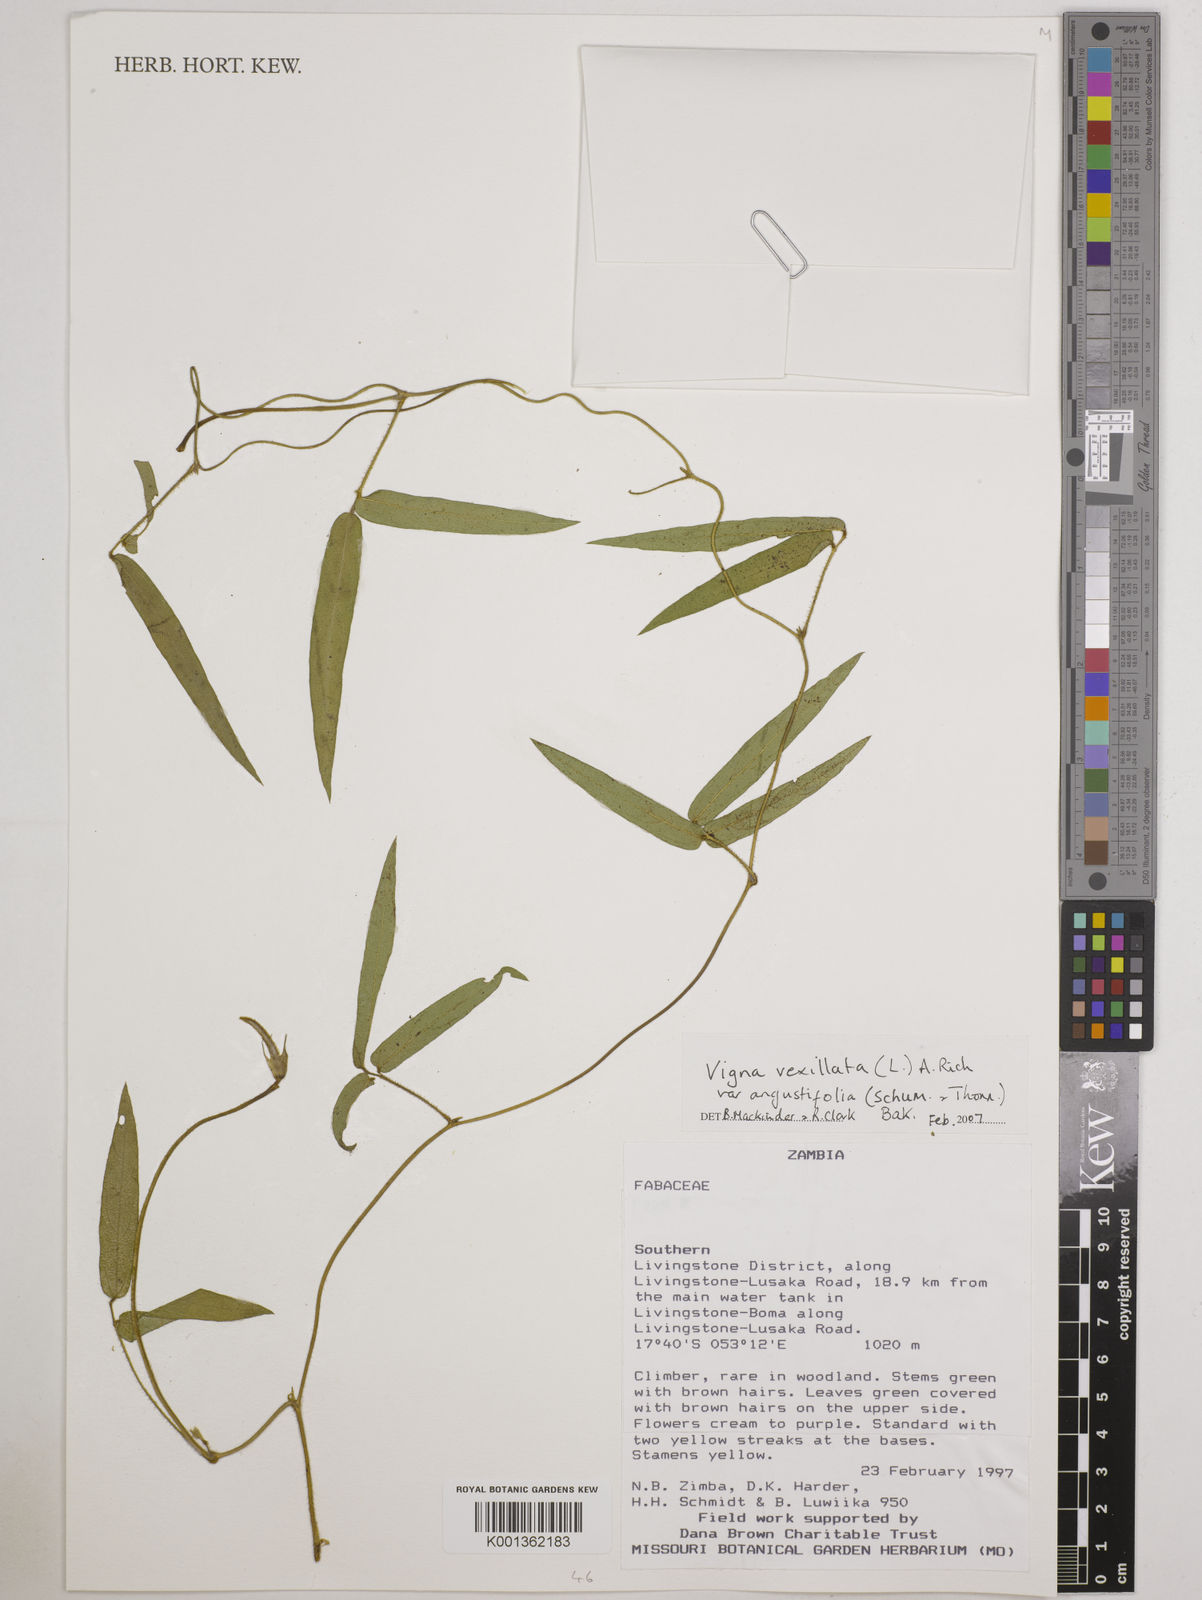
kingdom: Plantae
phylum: Tracheophyta
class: Magnoliopsida
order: Fabales
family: Fabaceae
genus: Vigna
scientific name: Vigna vexillata
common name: Zombi pea
